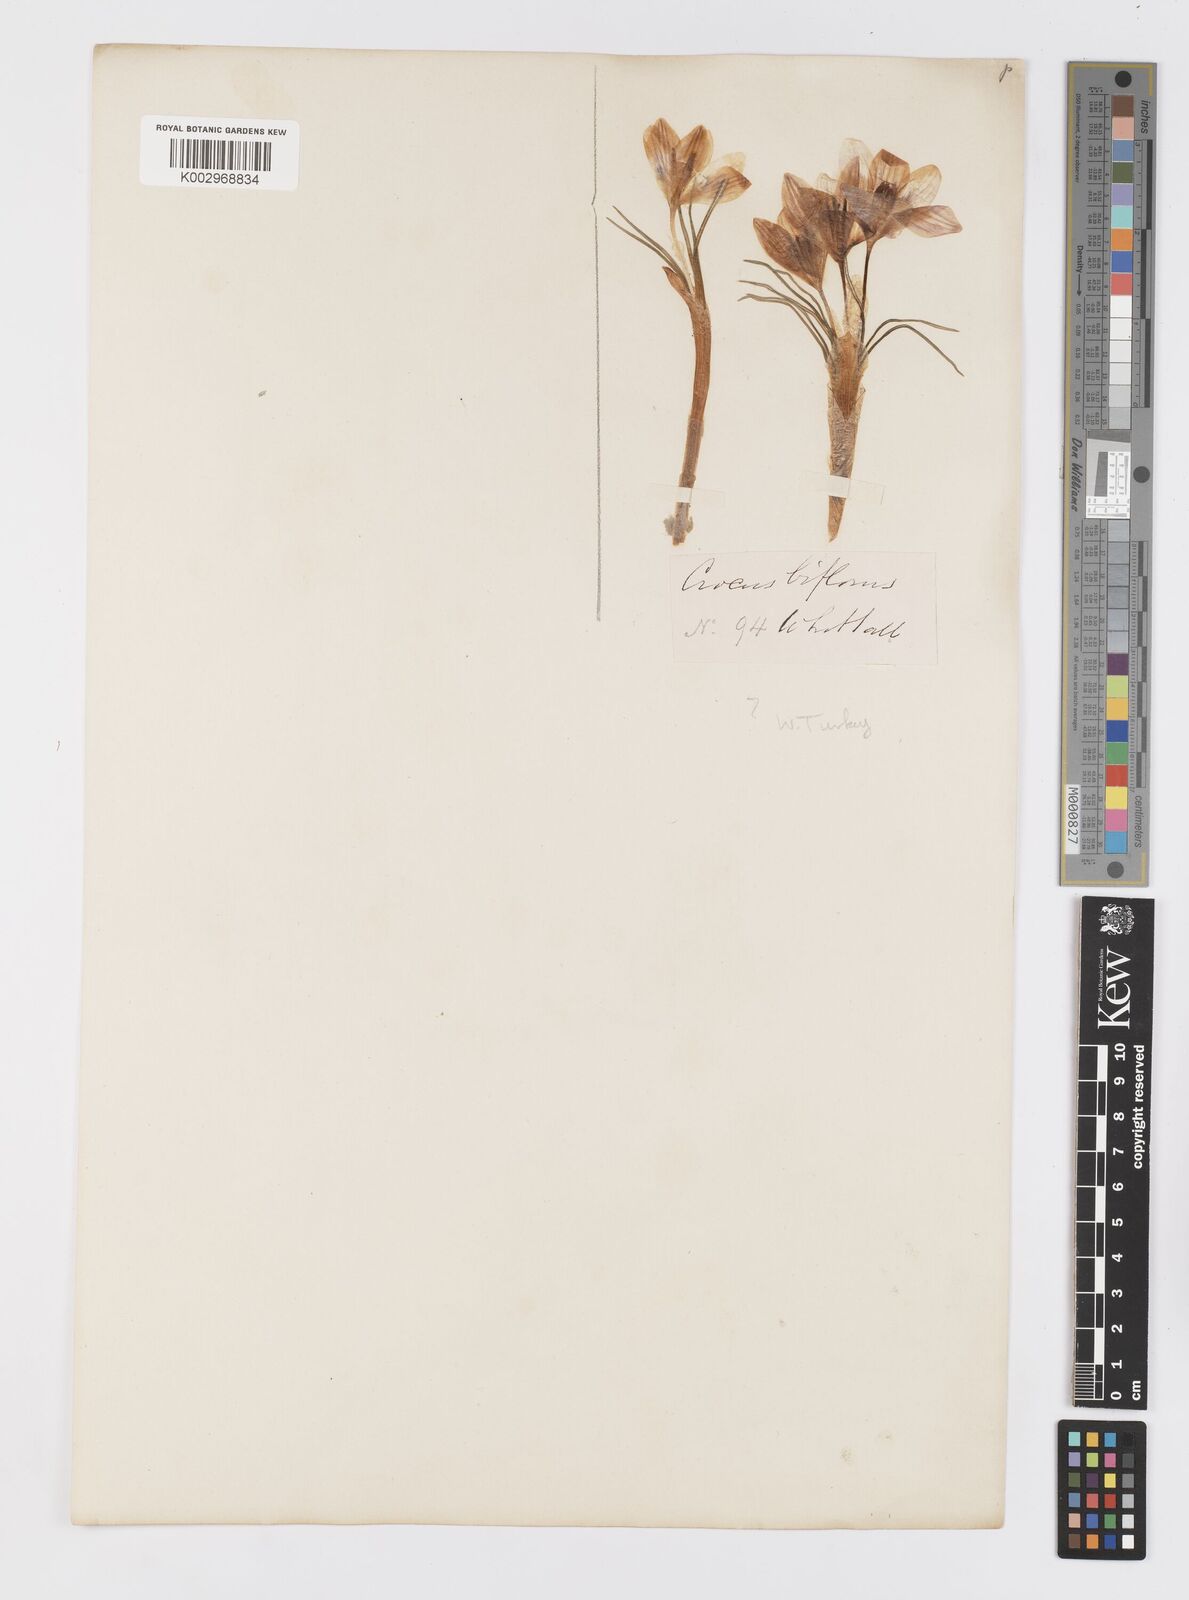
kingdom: Plantae
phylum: Tracheophyta
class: Liliopsida
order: Asparagales
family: Iridaceae
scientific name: Iridaceae
